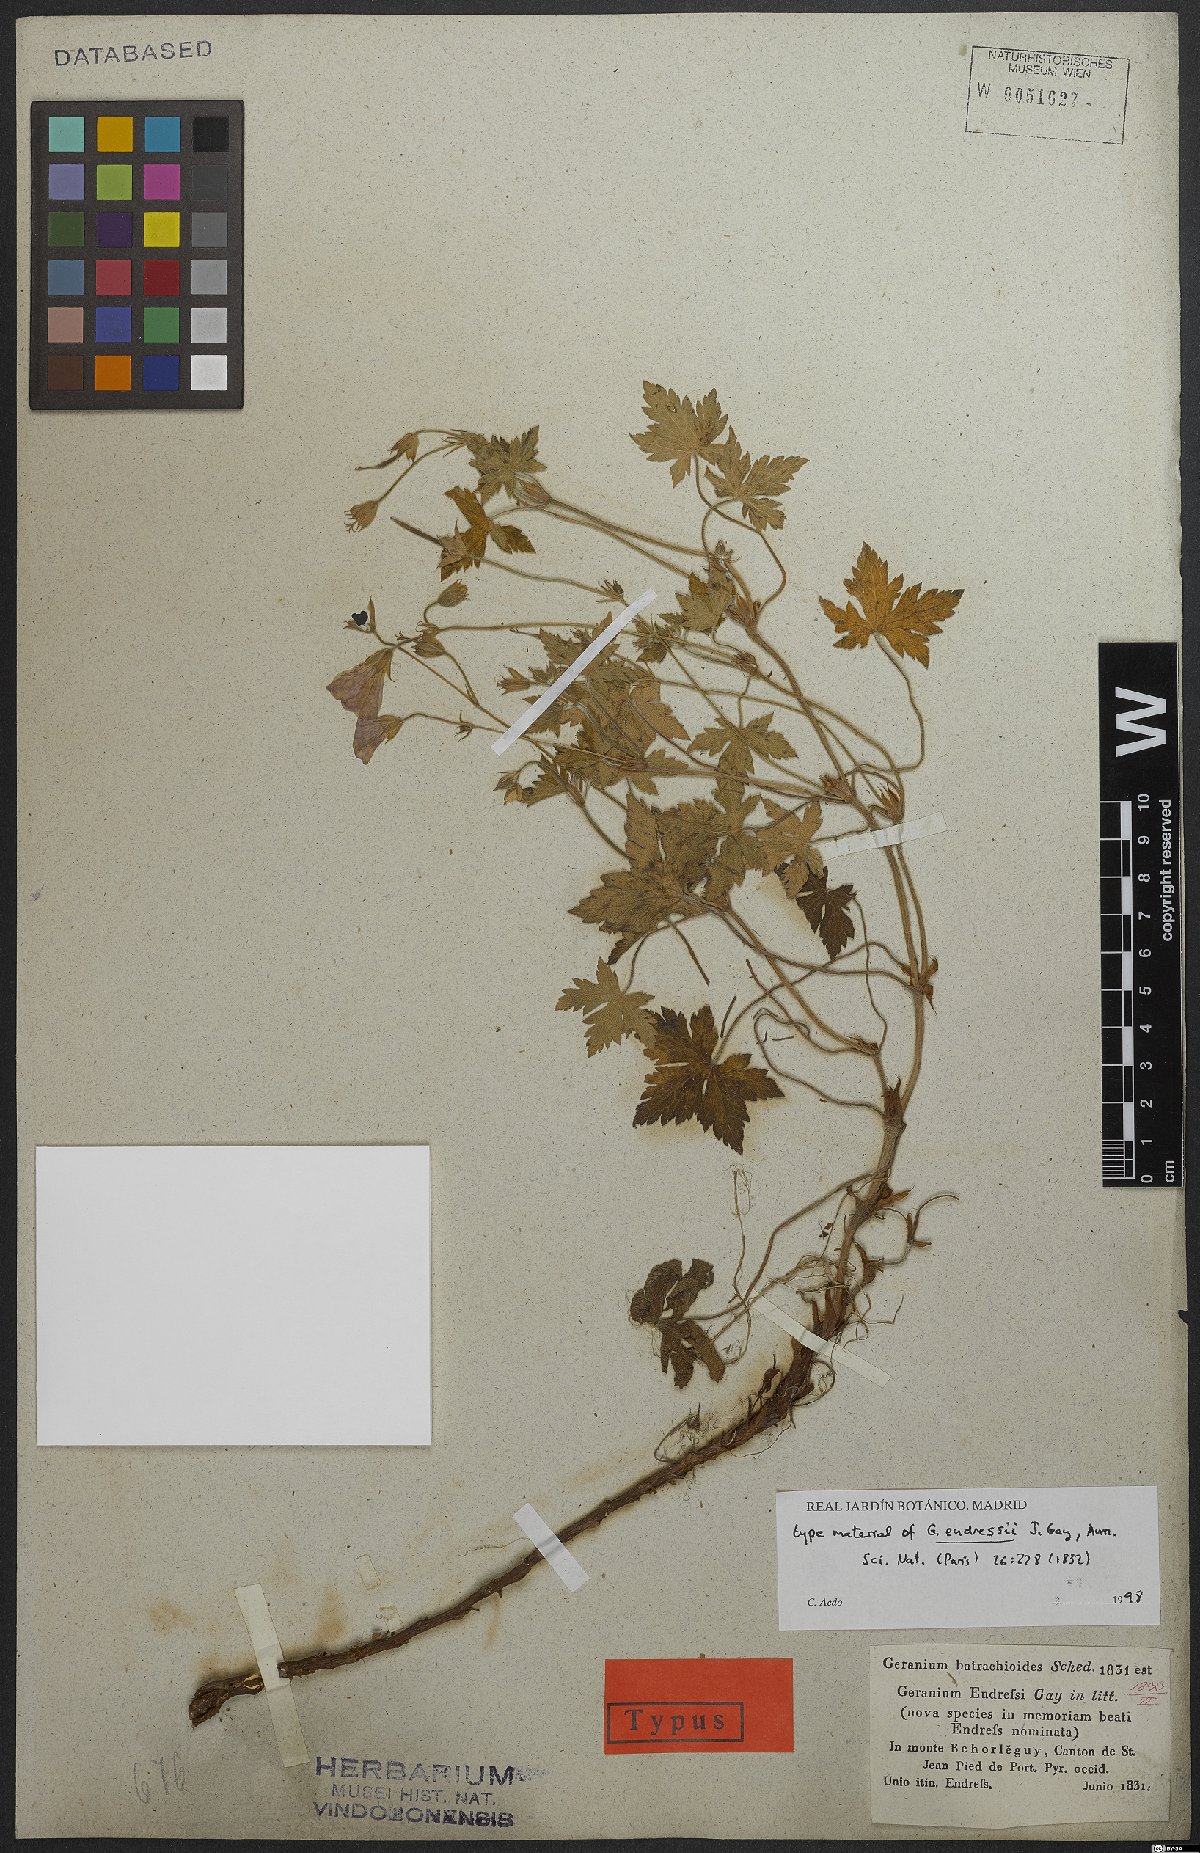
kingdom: Plantae
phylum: Tracheophyta
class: Magnoliopsida
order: Geraniales
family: Geraniaceae
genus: Geranium
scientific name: Geranium endressii
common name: French crane's-bill
